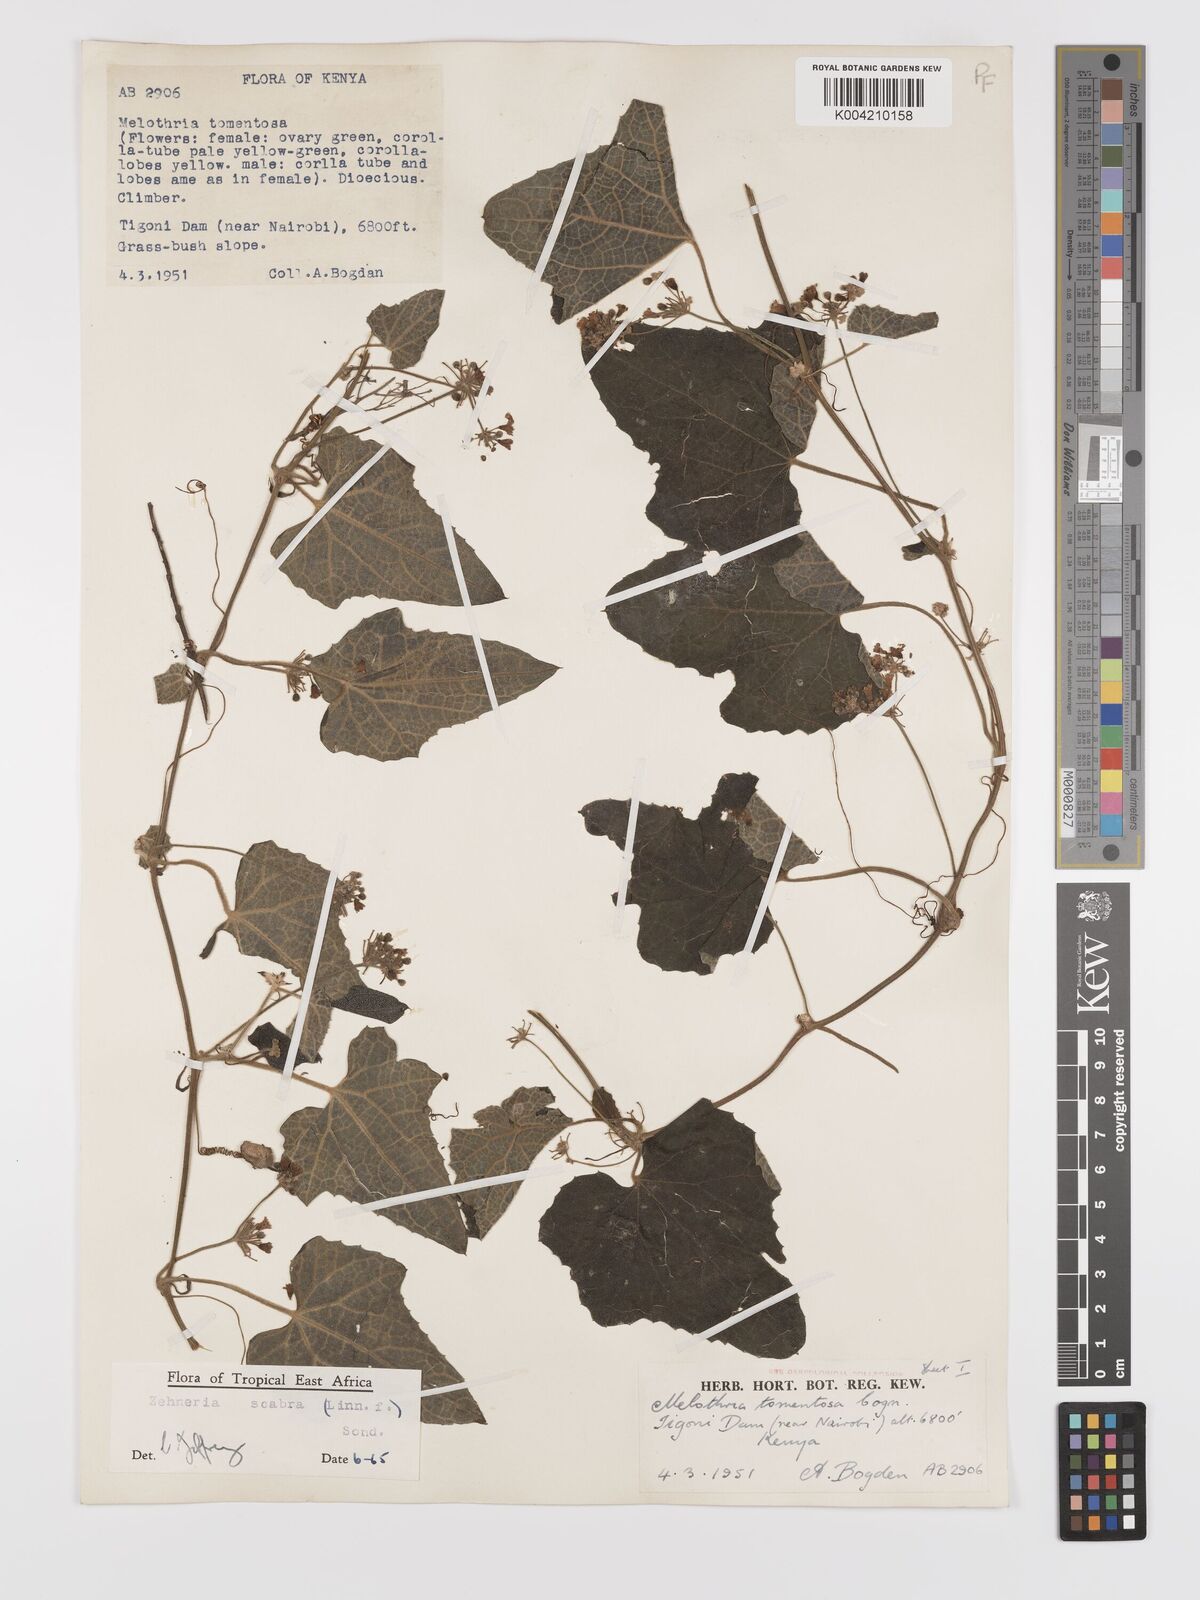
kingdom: Plantae
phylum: Tracheophyta
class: Magnoliopsida
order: Cucurbitales
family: Cucurbitaceae
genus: Zehneria
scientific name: Zehneria scabra
